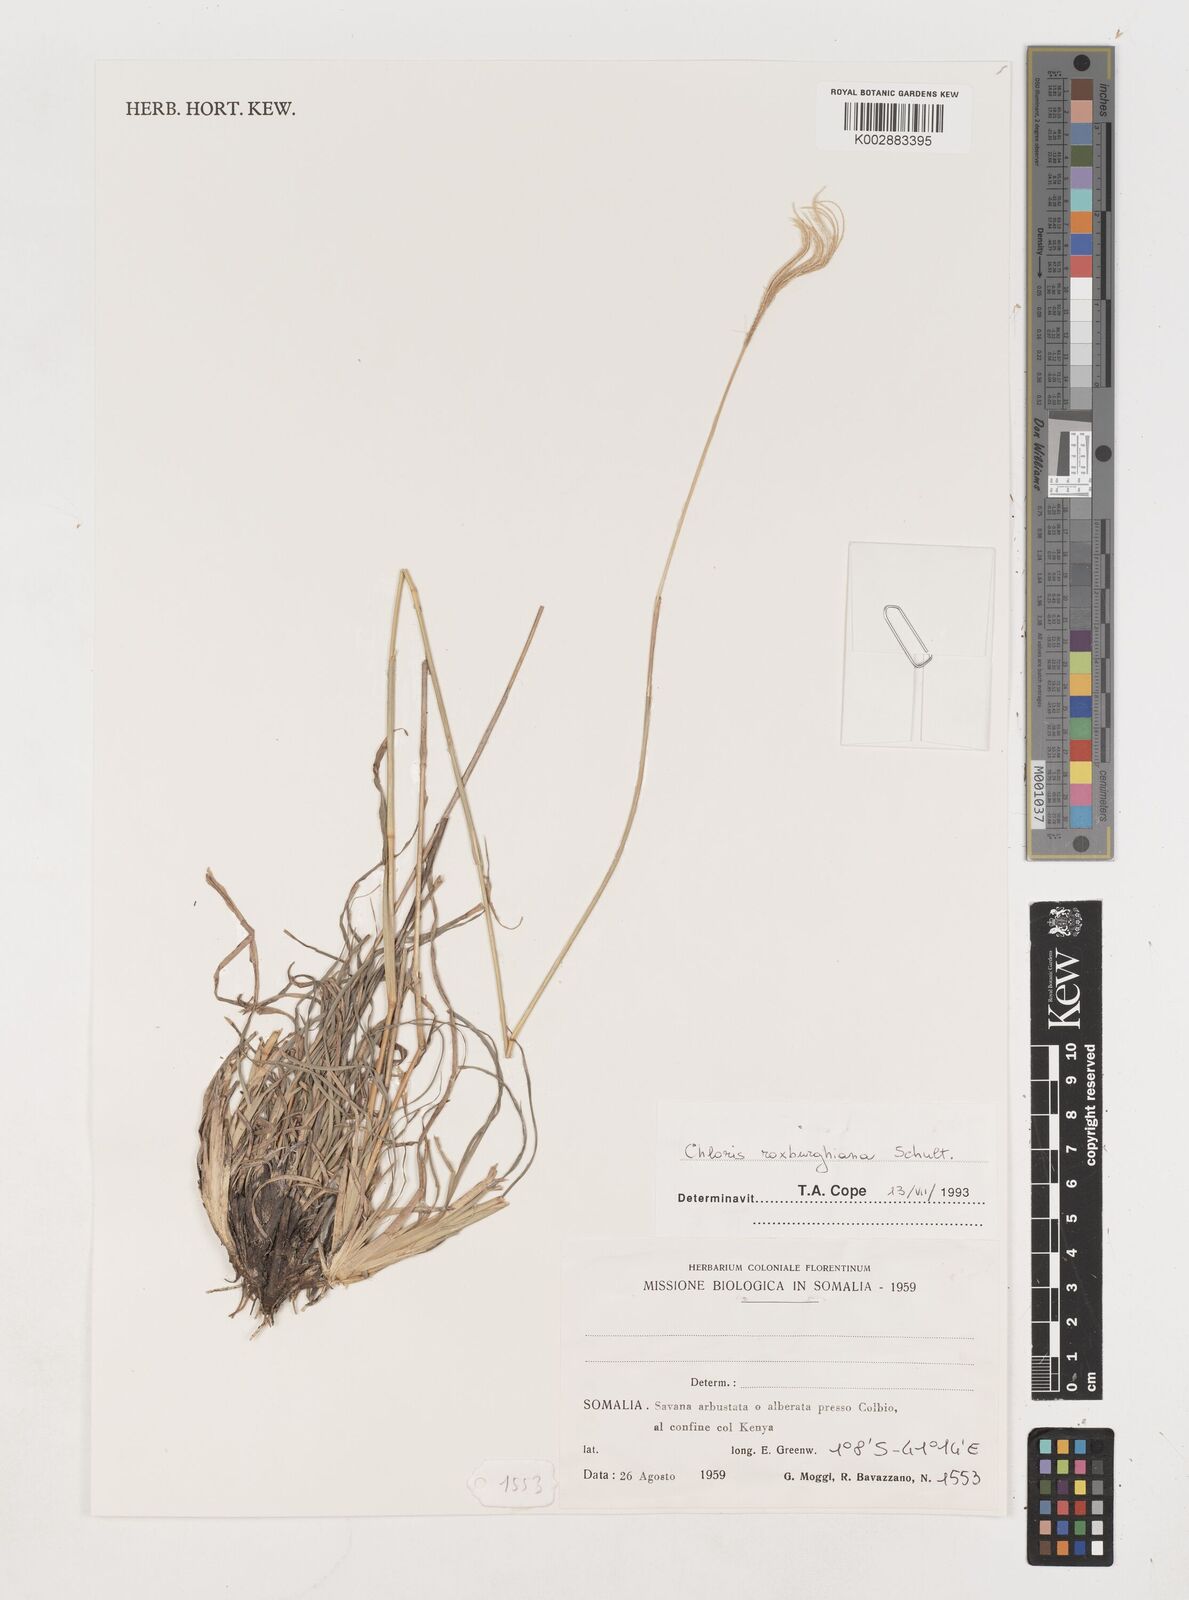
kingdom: Plantae
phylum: Tracheophyta
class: Liliopsida
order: Poales
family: Poaceae
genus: Tetrapogon
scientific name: Tetrapogon roxburghiana
